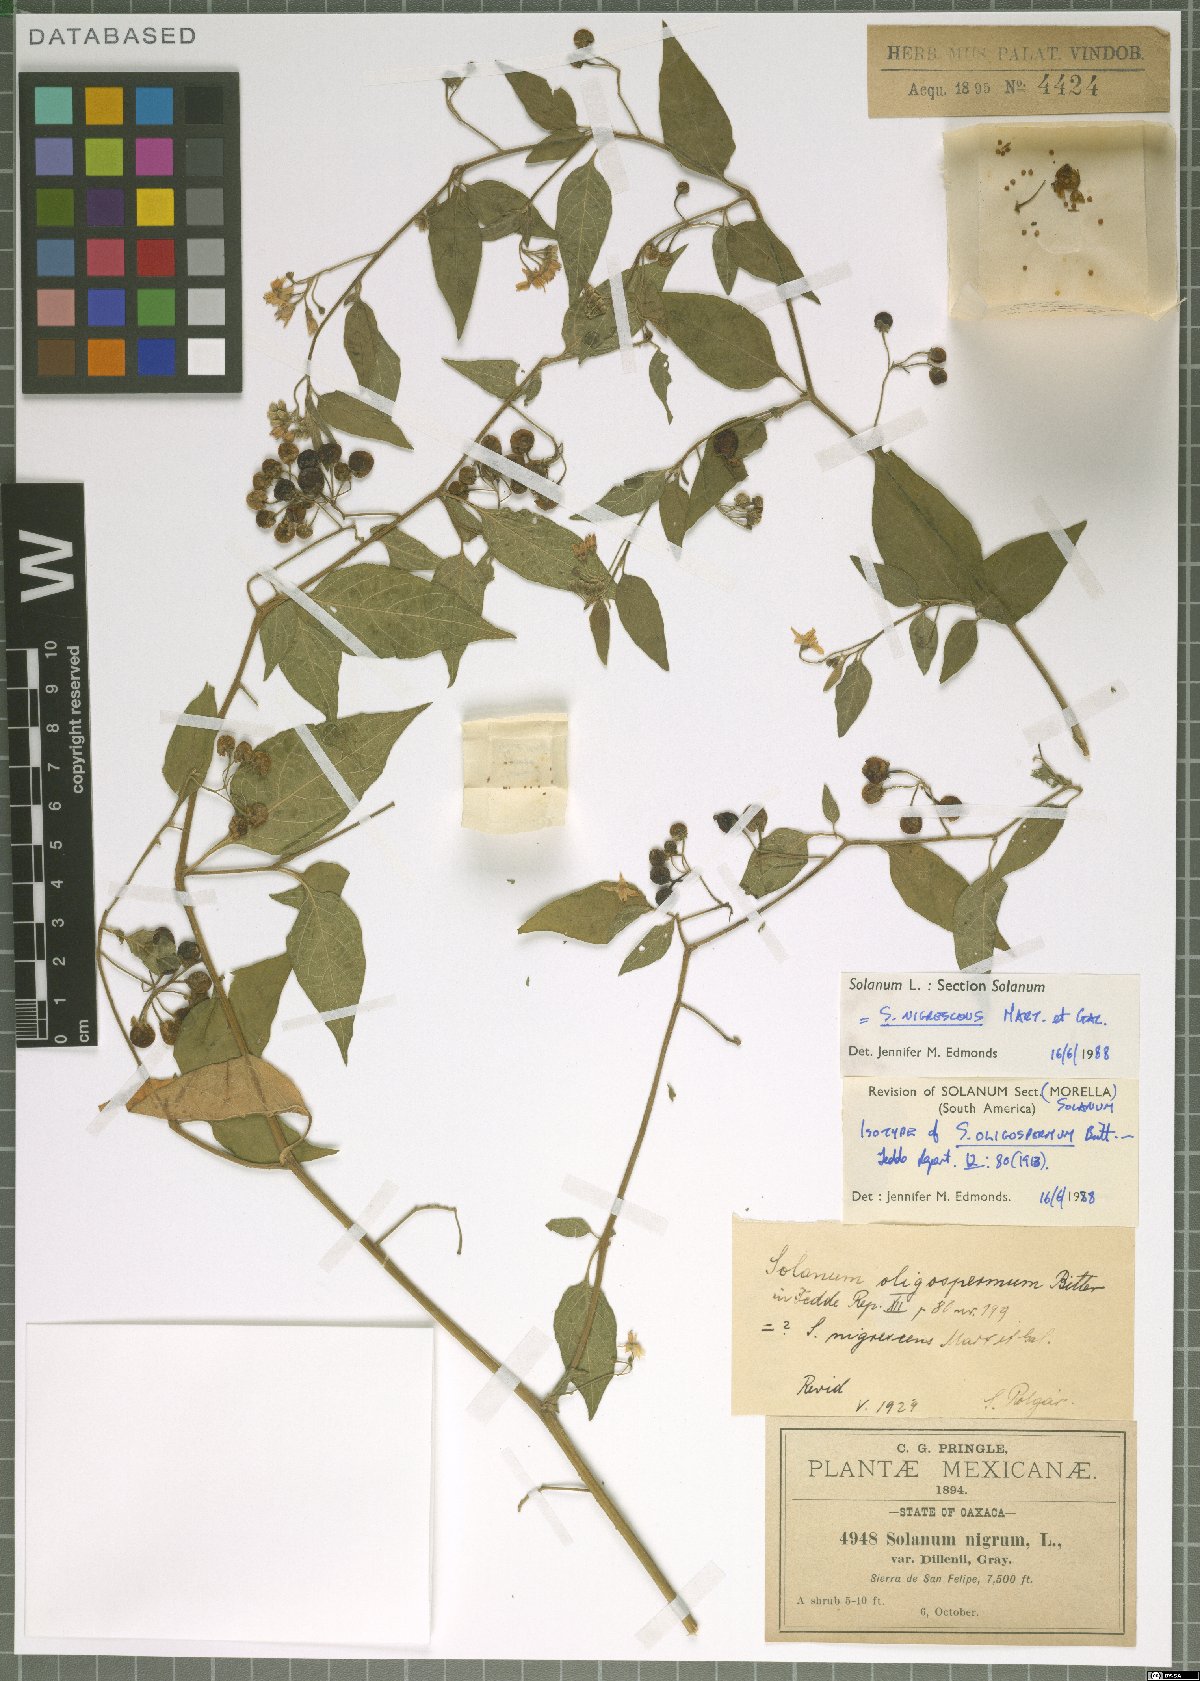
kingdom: Plantae
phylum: Tracheophyta
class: Magnoliopsida
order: Solanales
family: Solanaceae
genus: Solanum
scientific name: Solanum nigrescens
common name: Divine nightshade
